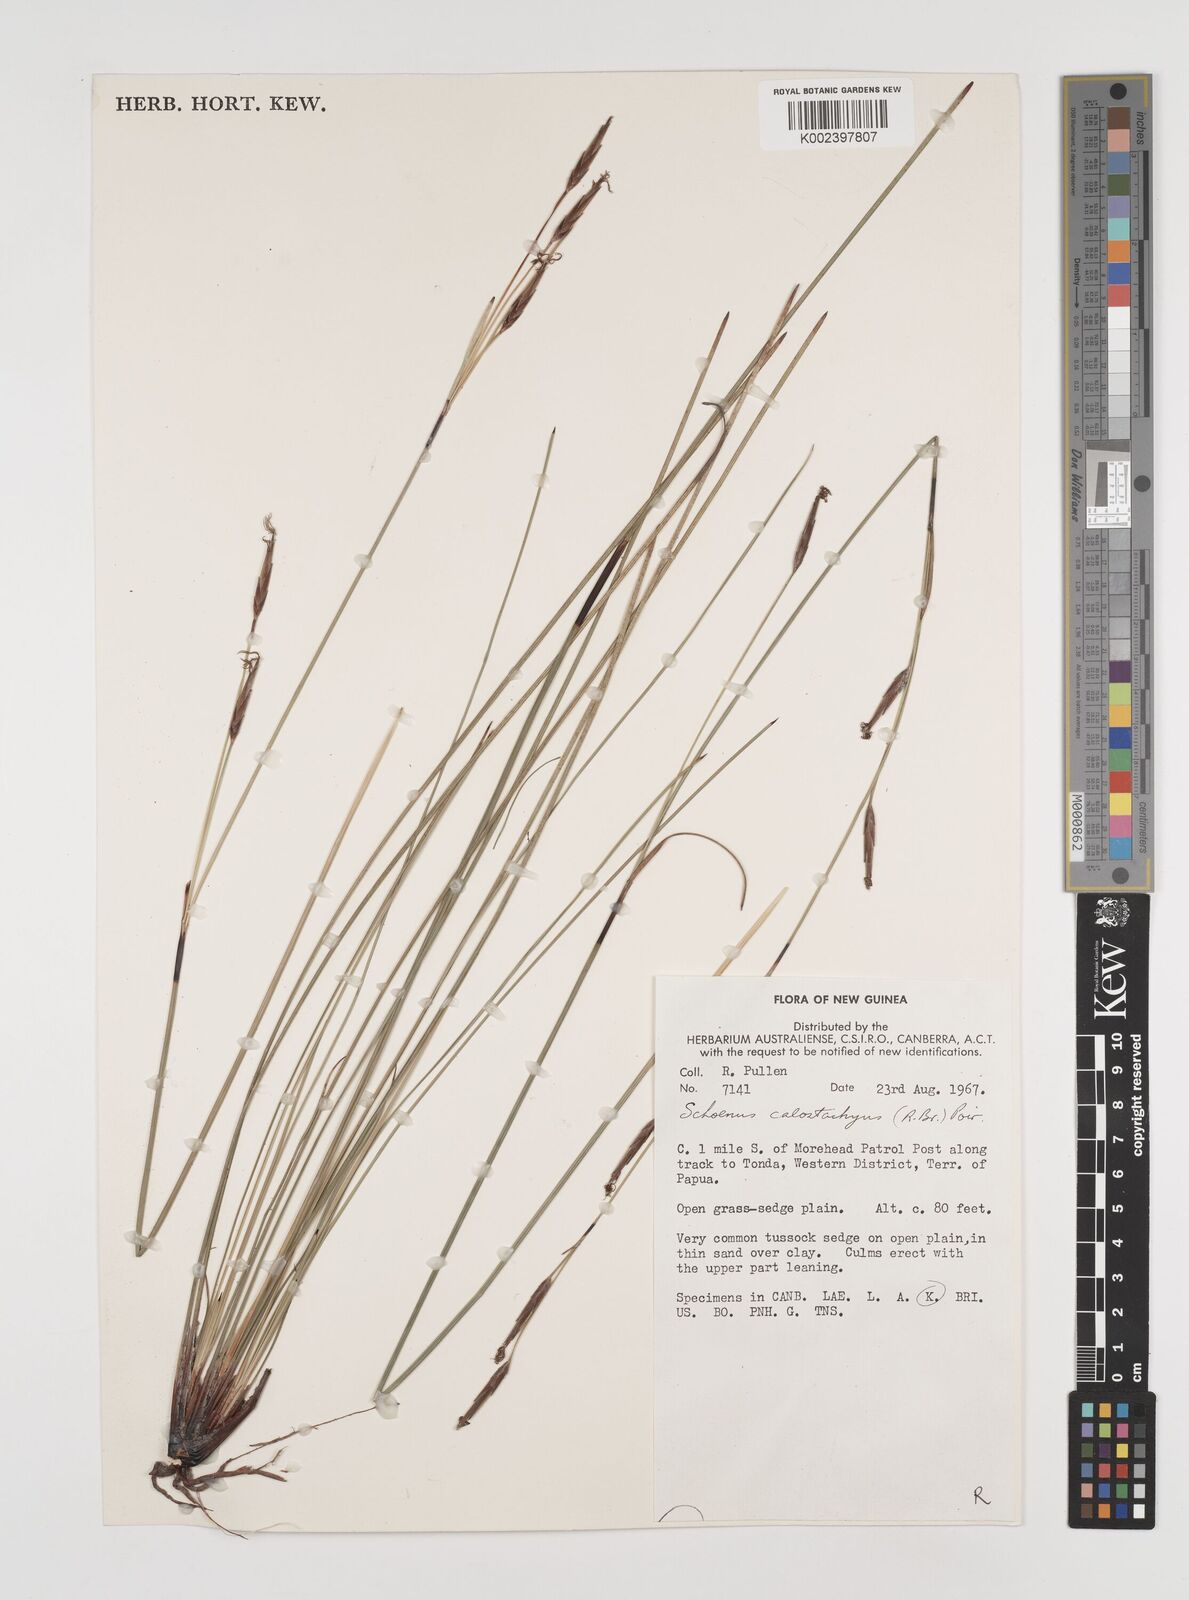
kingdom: Plantae
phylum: Tracheophyta
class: Liliopsida
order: Poales
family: Cyperaceae
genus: Schoenus
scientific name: Schoenus calostachyus
